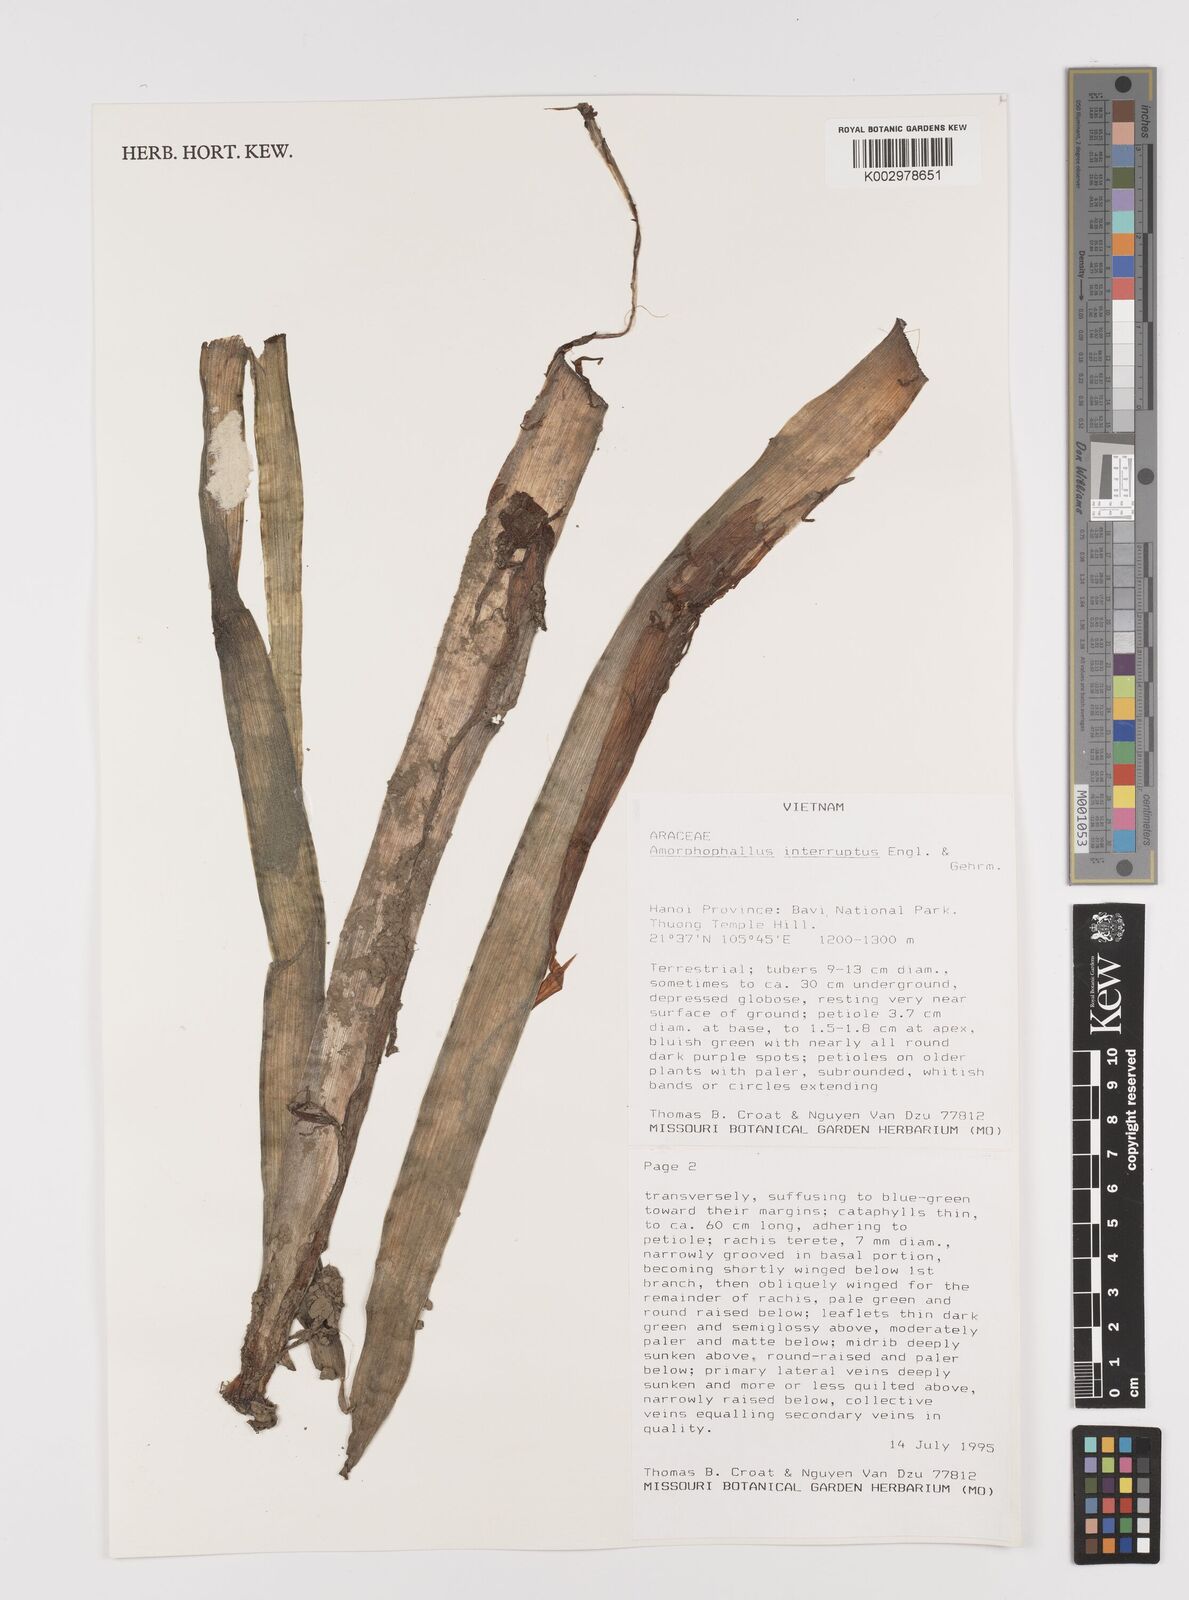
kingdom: Plantae
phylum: Tracheophyta
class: Liliopsida
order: Alismatales
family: Araceae
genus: Amorphophallus
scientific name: Amorphophallus interruptus
